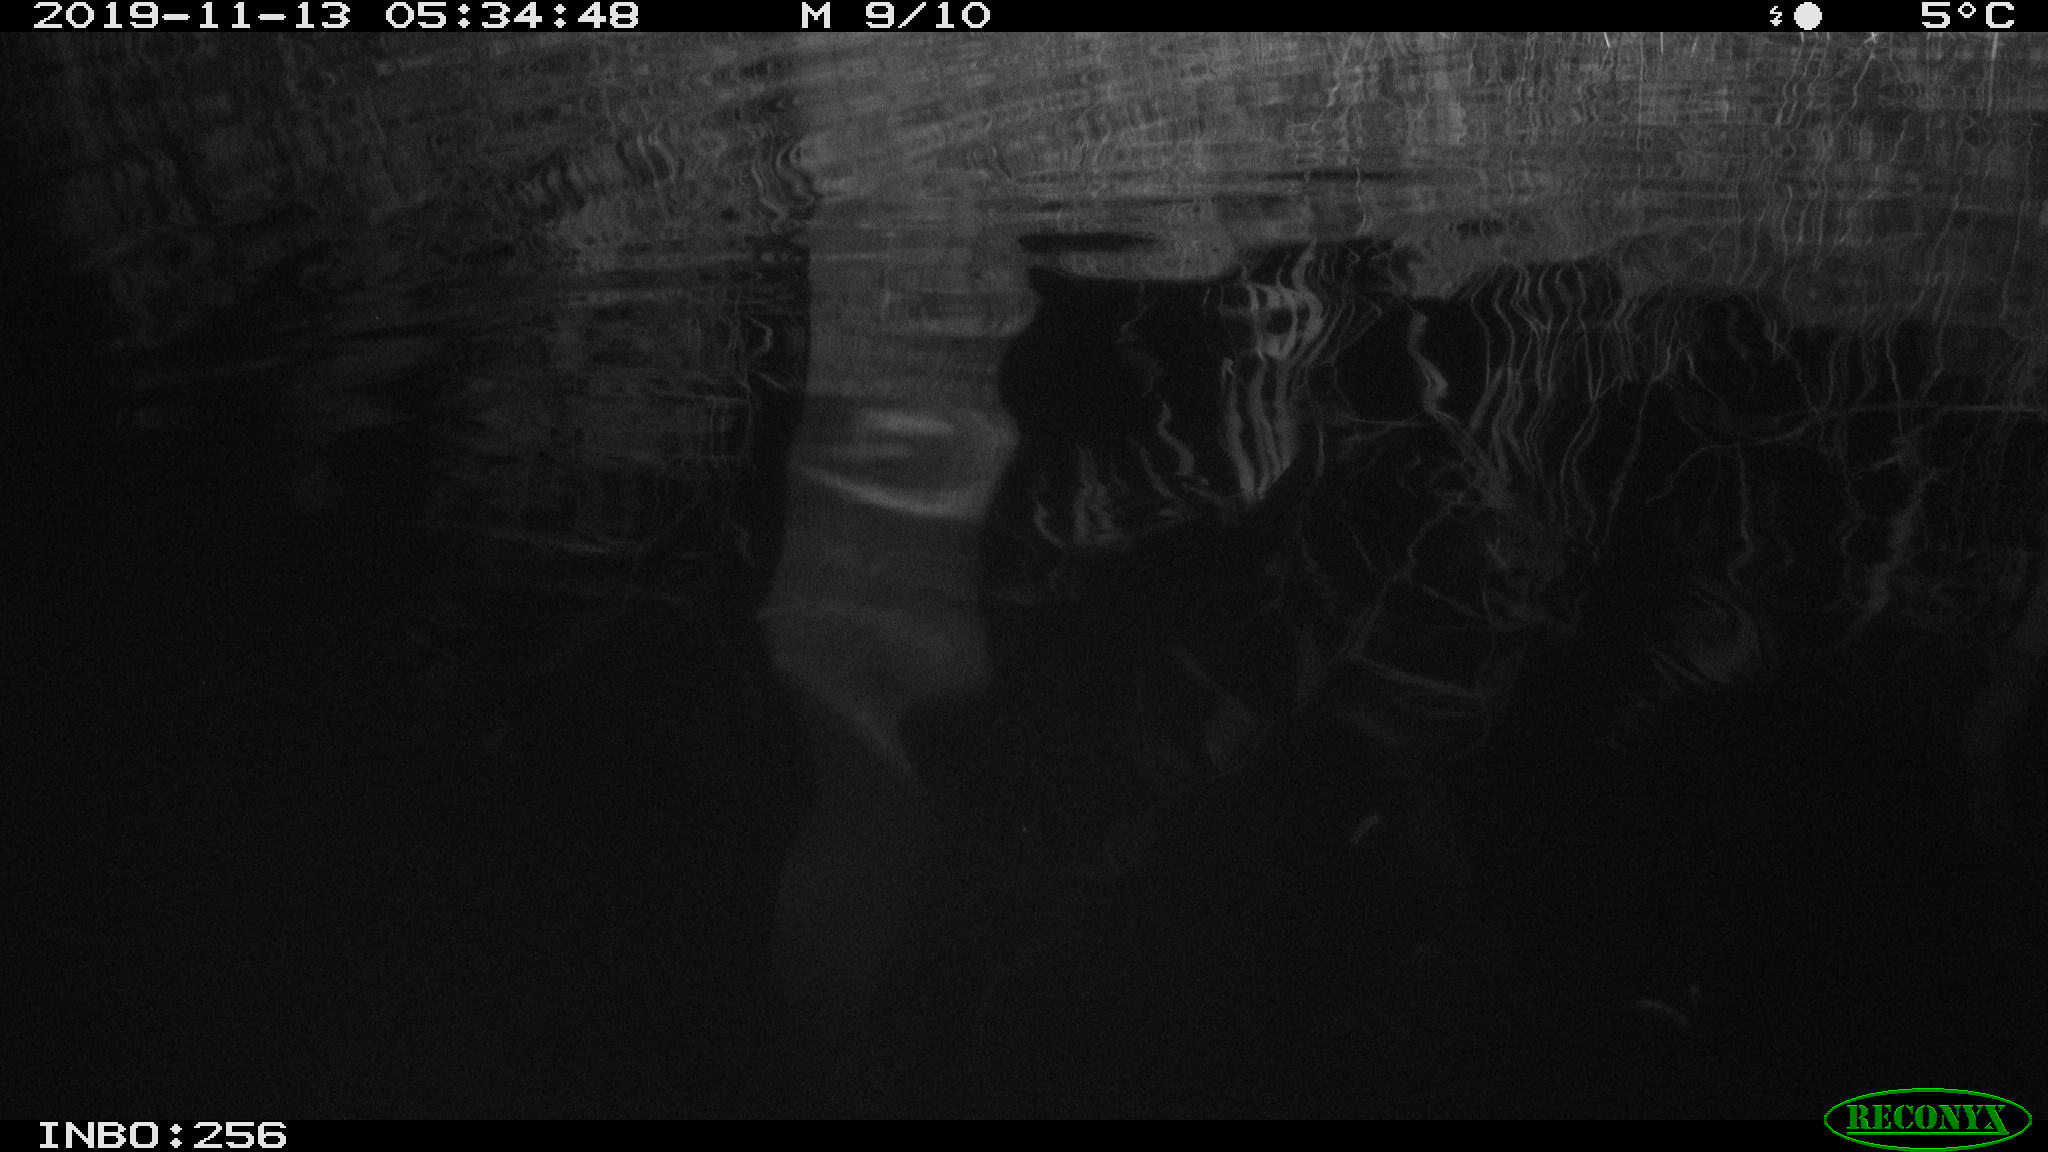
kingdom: Animalia
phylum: Chordata
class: Mammalia
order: Rodentia
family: Muridae
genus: Rattus
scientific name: Rattus norvegicus
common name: Brown rat
